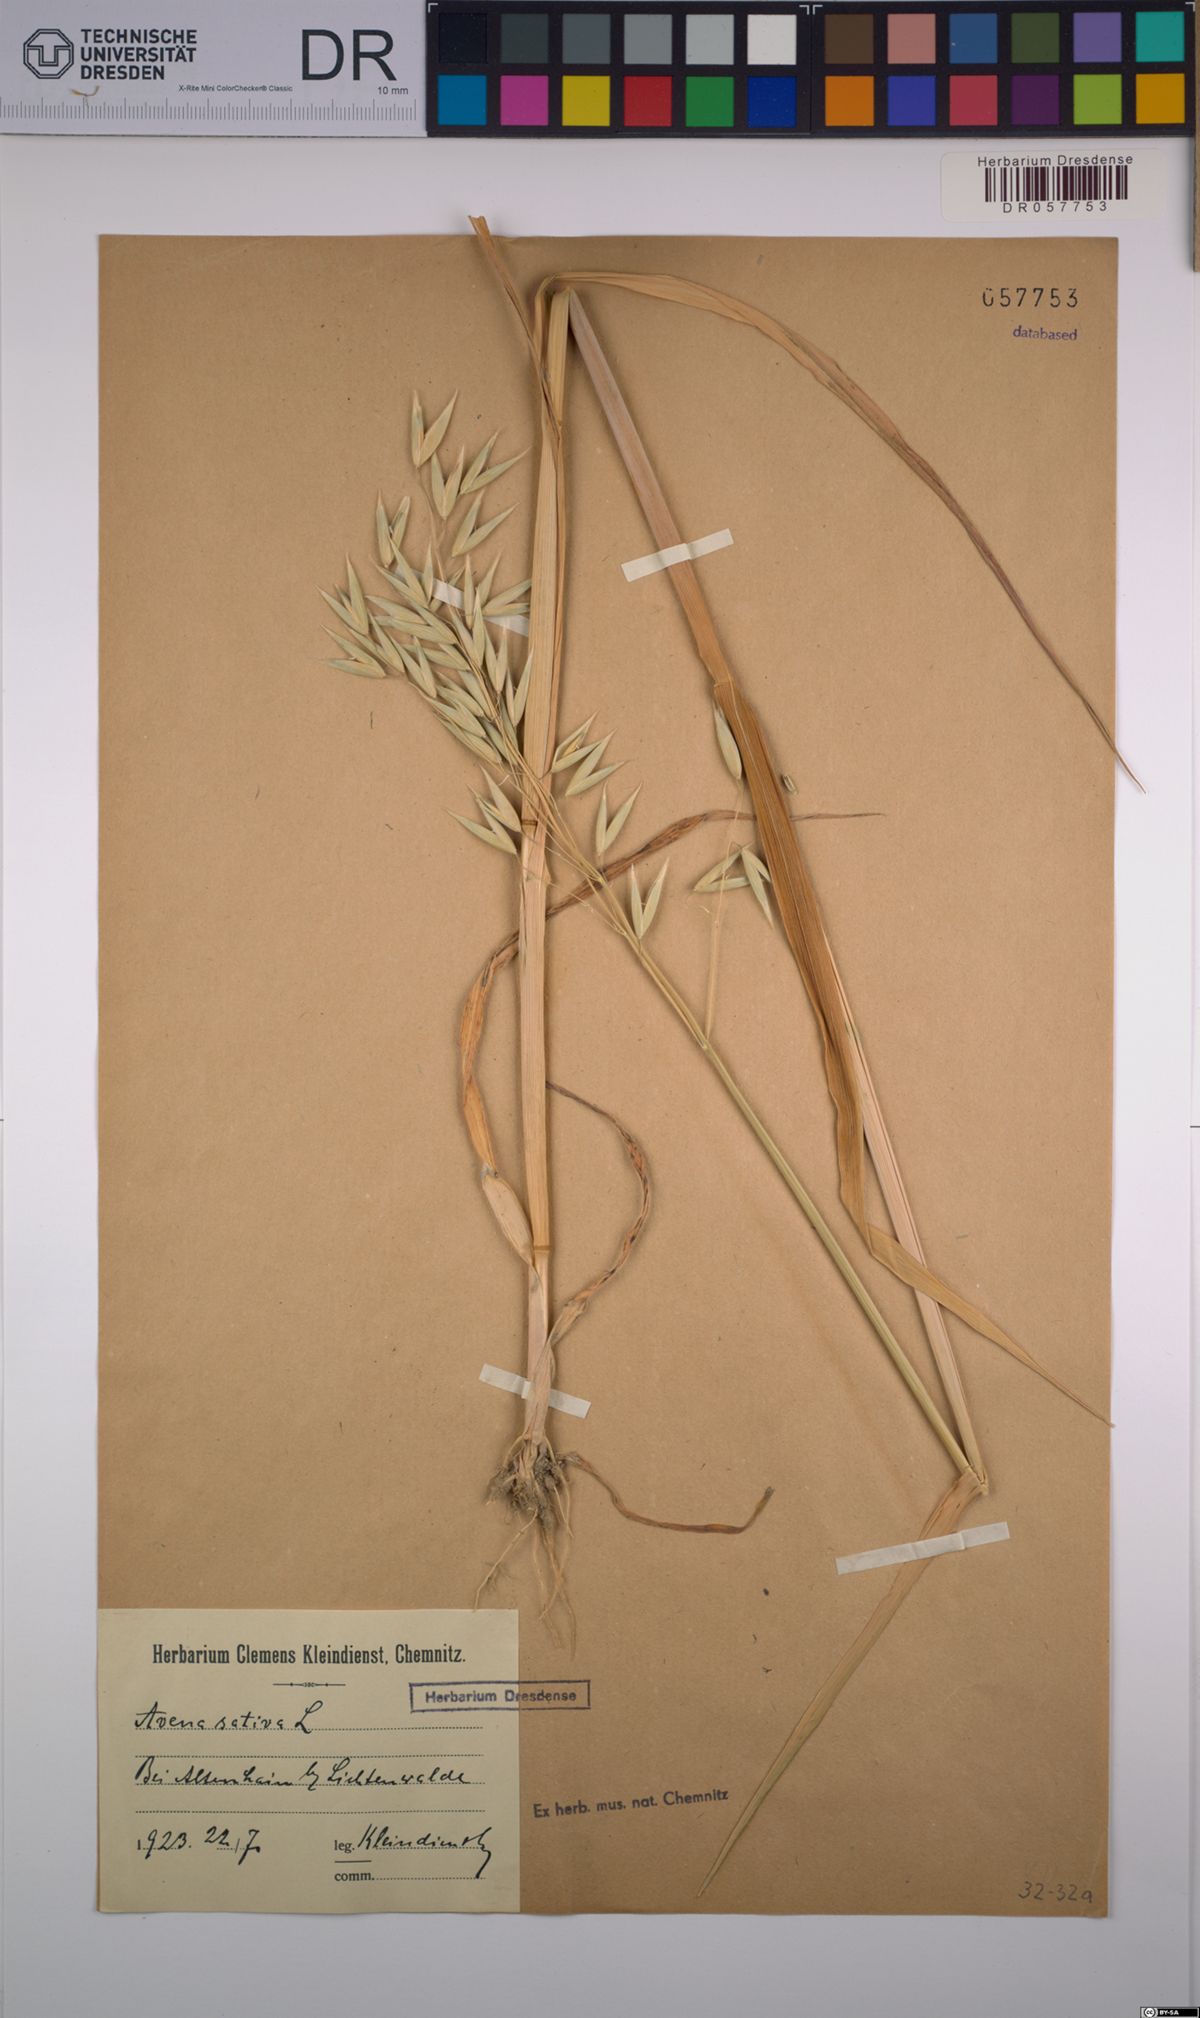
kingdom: Plantae
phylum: Tracheophyta
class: Liliopsida
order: Poales
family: Poaceae
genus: Avena
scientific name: Avena sativa
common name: Oat
